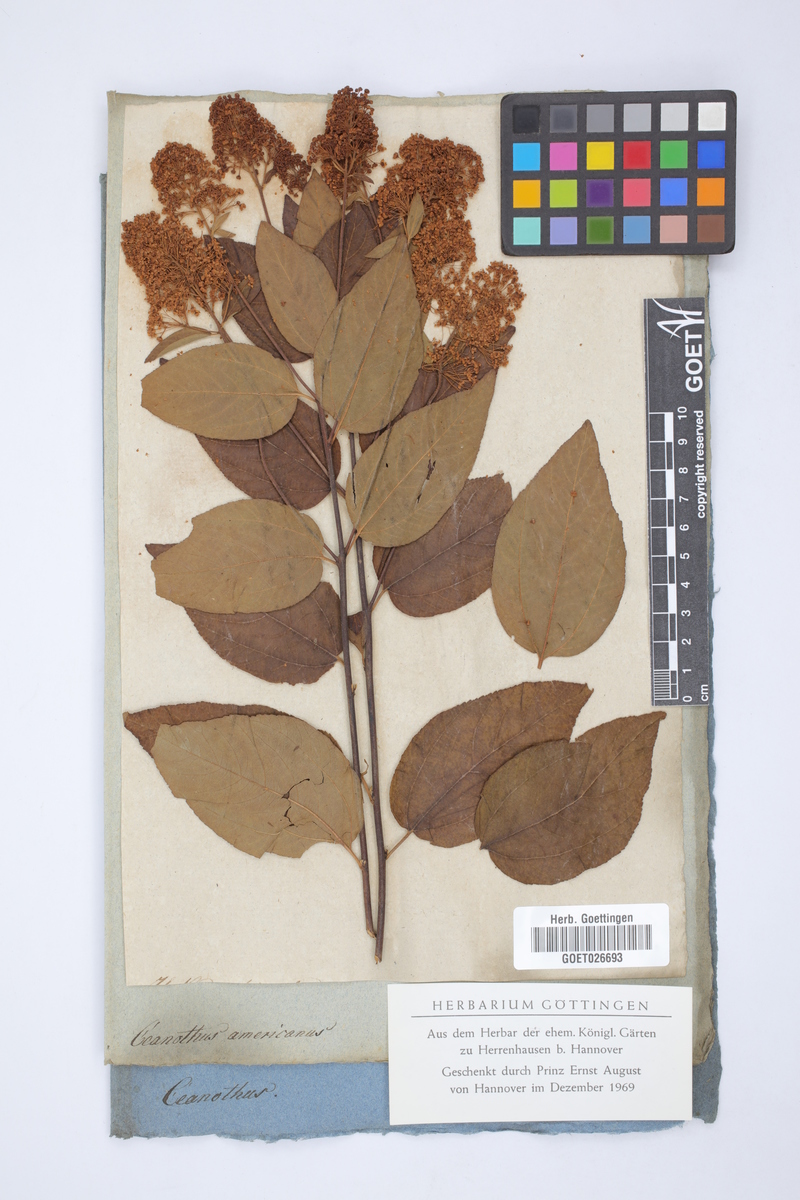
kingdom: Plantae
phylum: Tracheophyta
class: Magnoliopsida
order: Rosales
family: Rhamnaceae
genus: Ceanothus
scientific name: Ceanothus americanus
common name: Redroot
